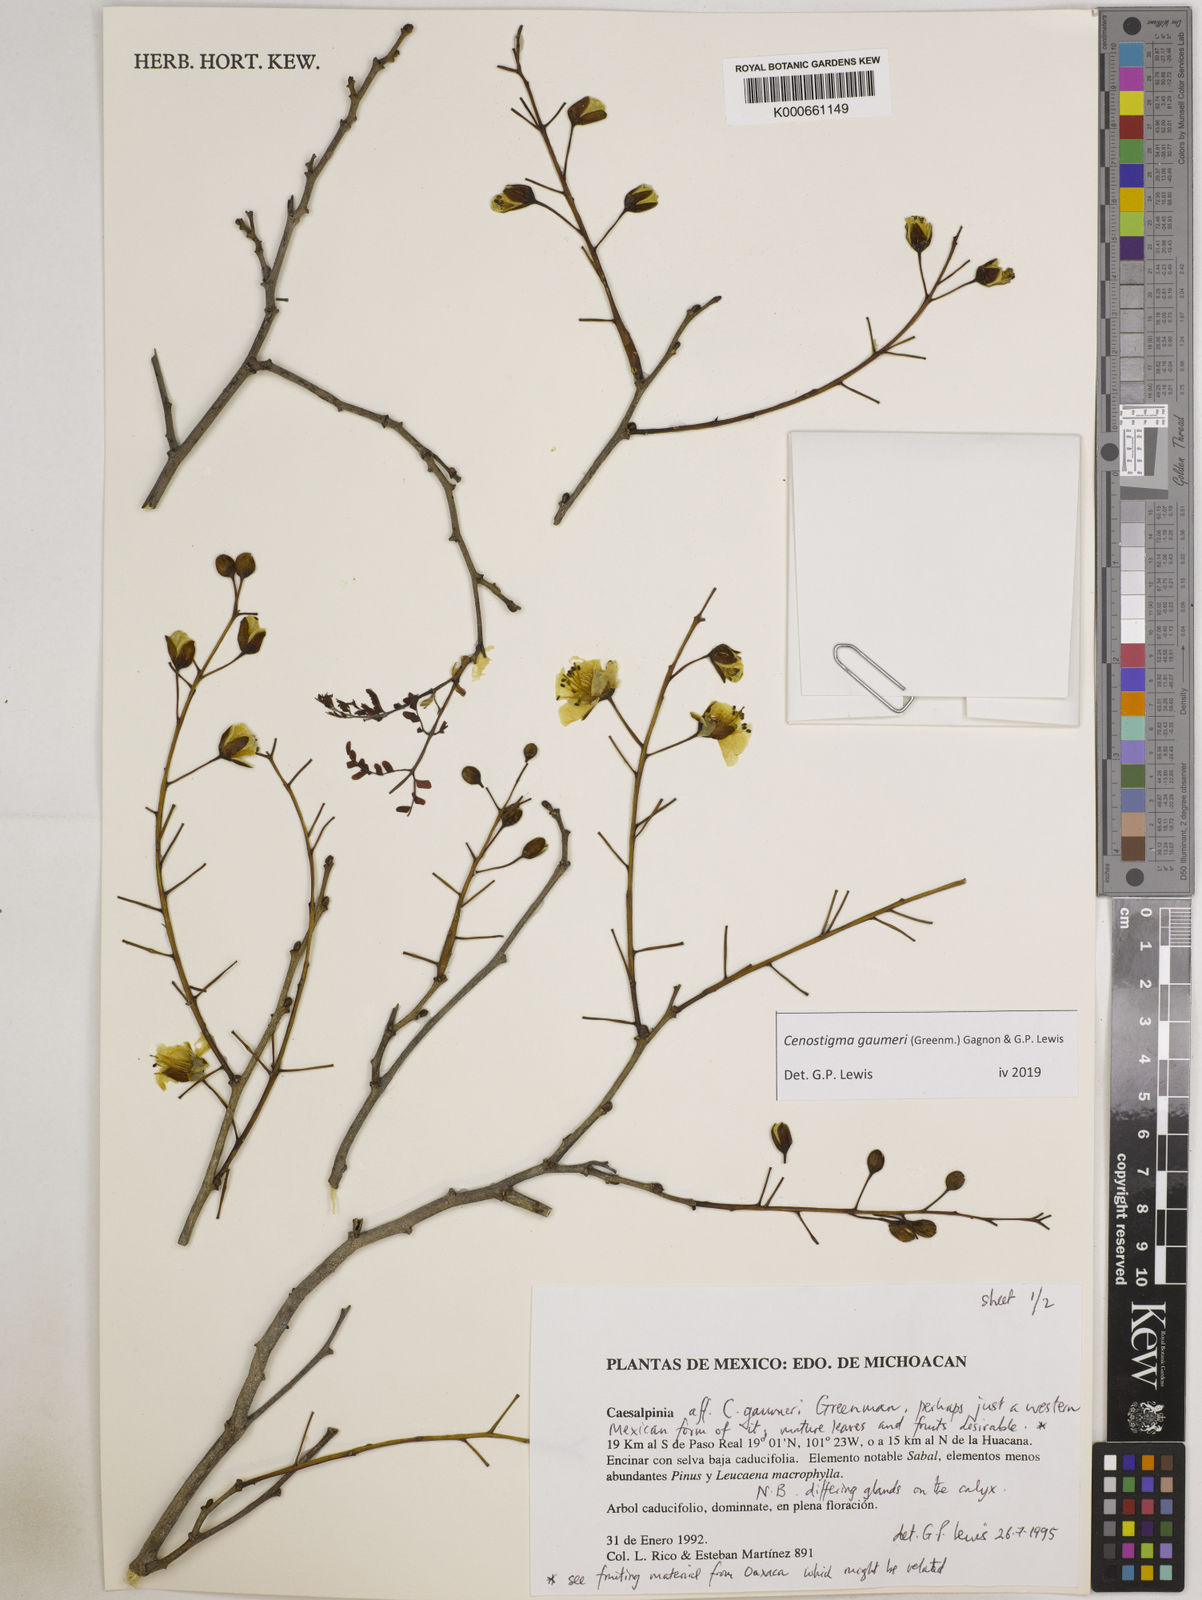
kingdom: Plantae
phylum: Tracheophyta
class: Magnoliopsida
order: Fabales
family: Fabaceae
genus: Cenostigma
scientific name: Cenostigma gaumeri
